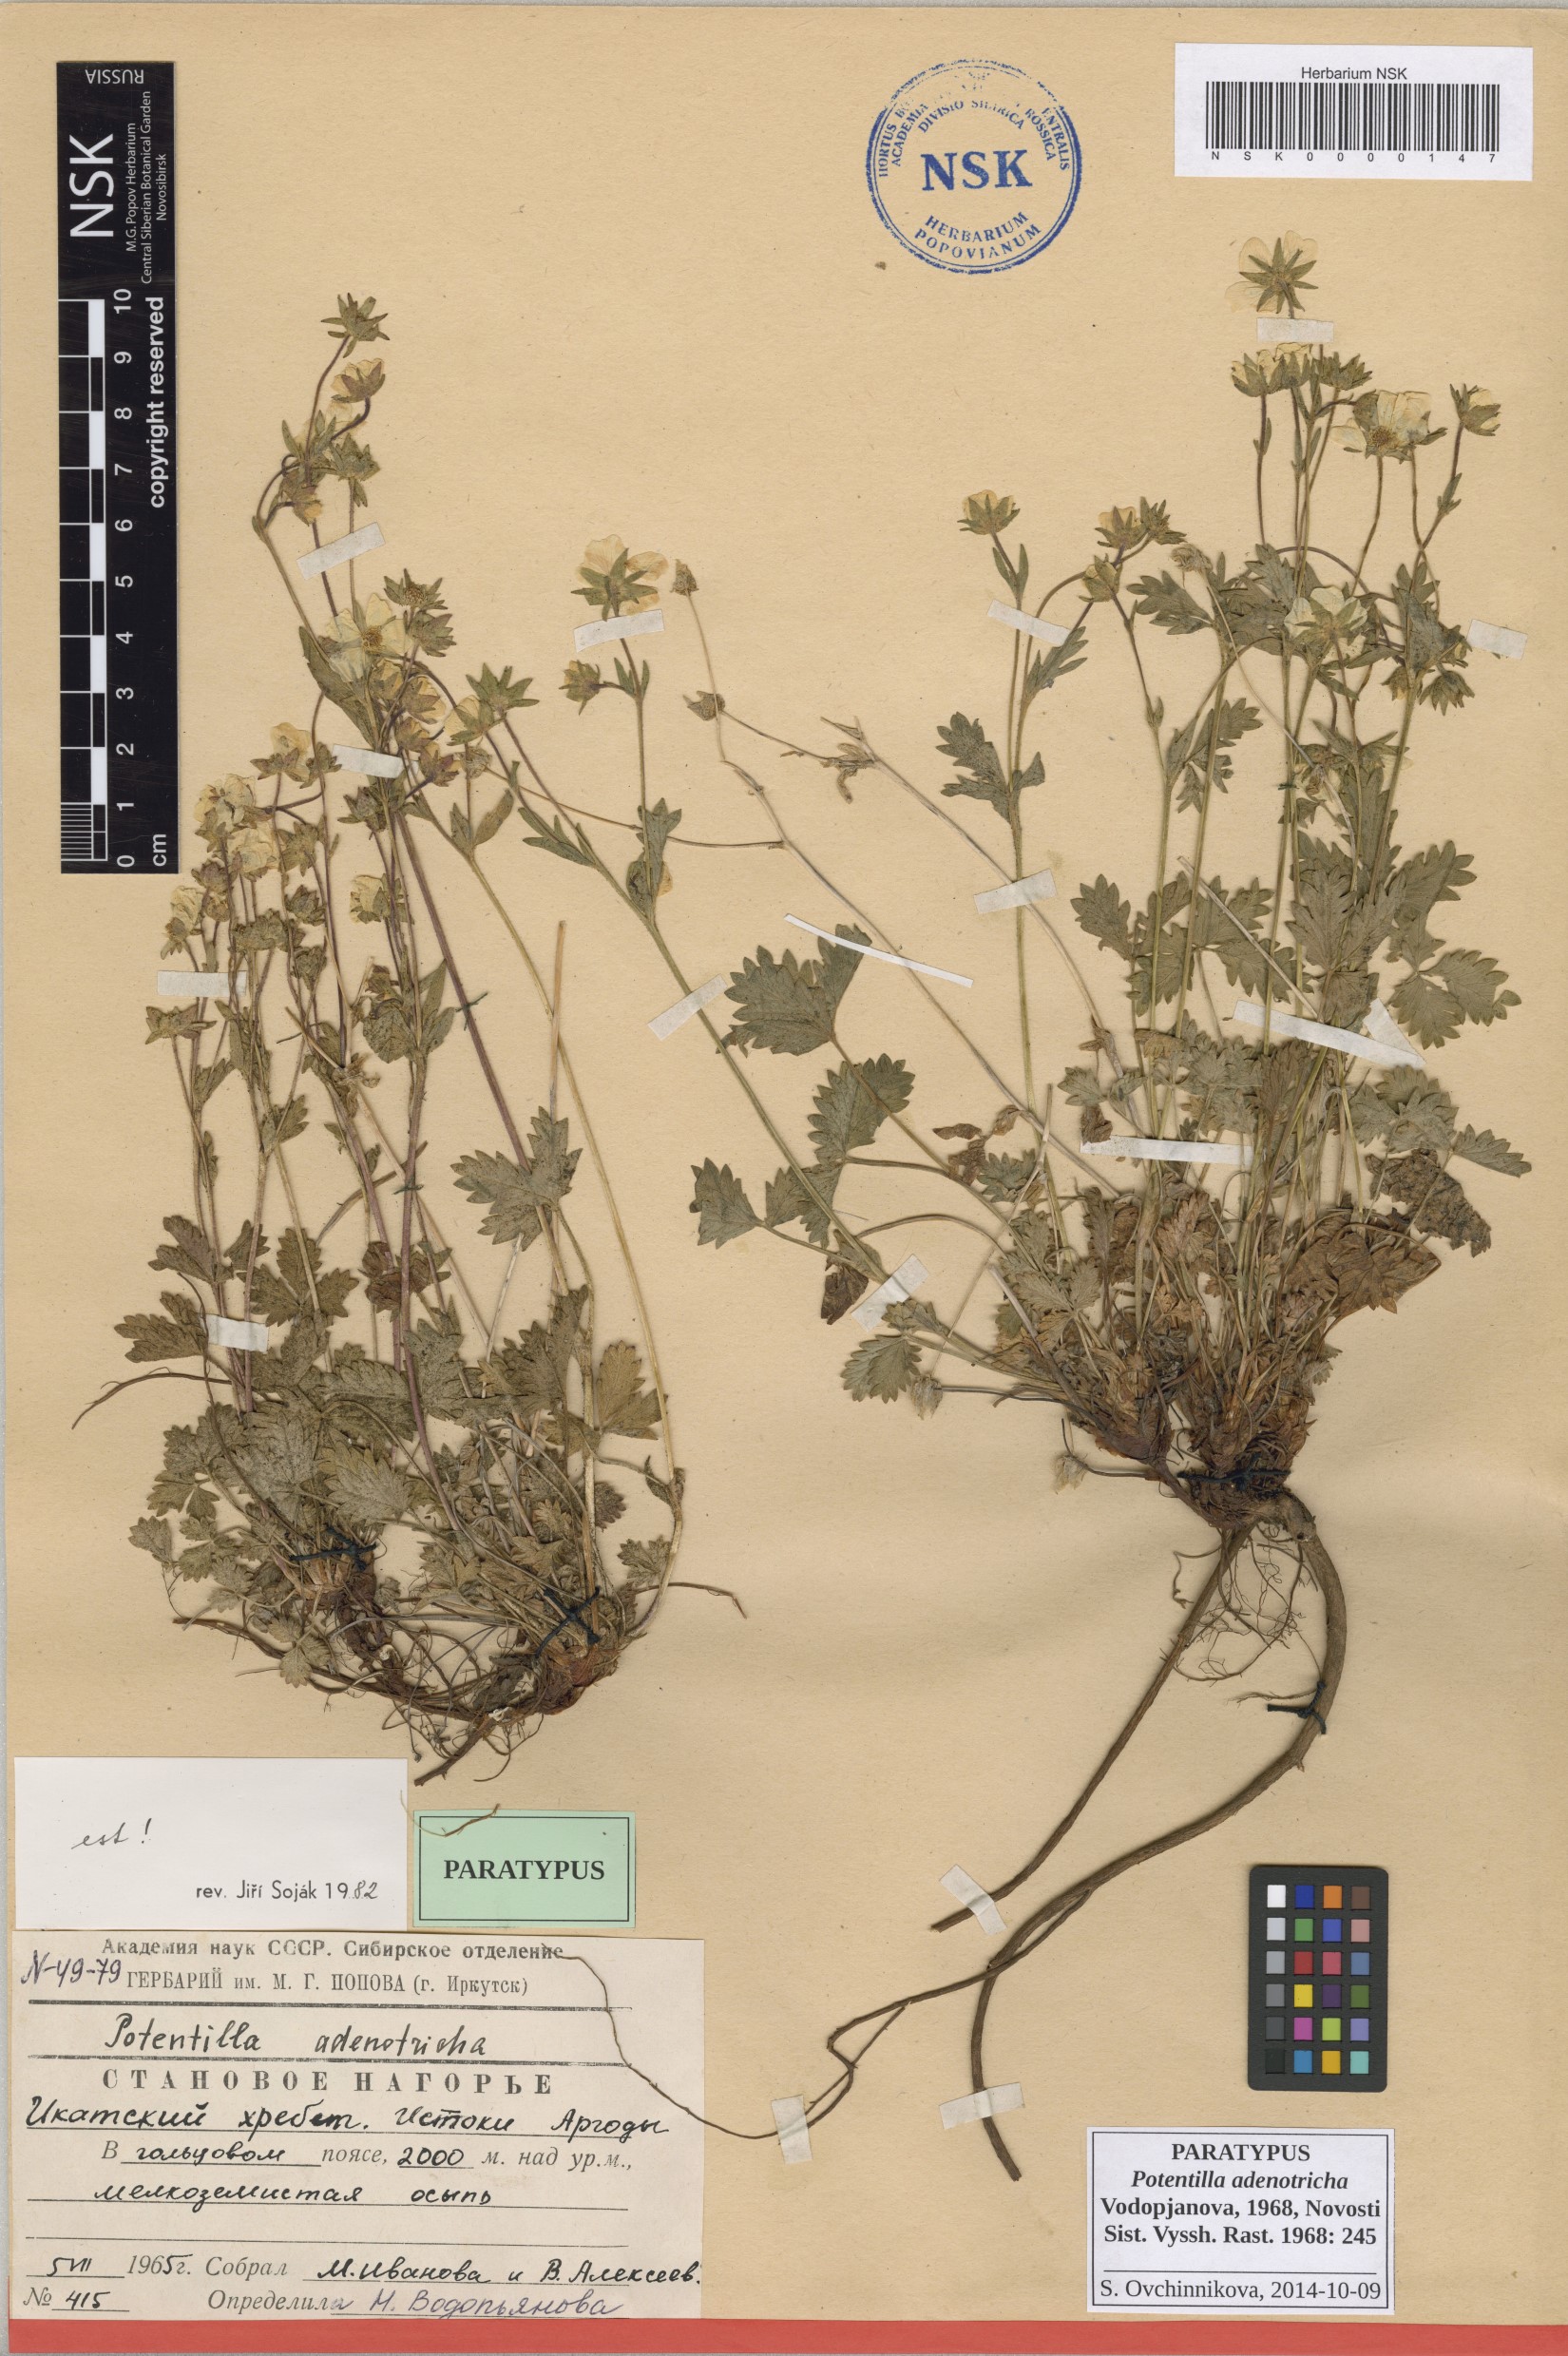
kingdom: Plantae
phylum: Tracheophyta
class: Magnoliopsida
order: Rosales
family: Rosaceae
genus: Potentilla
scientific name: Potentilla adenotricha
